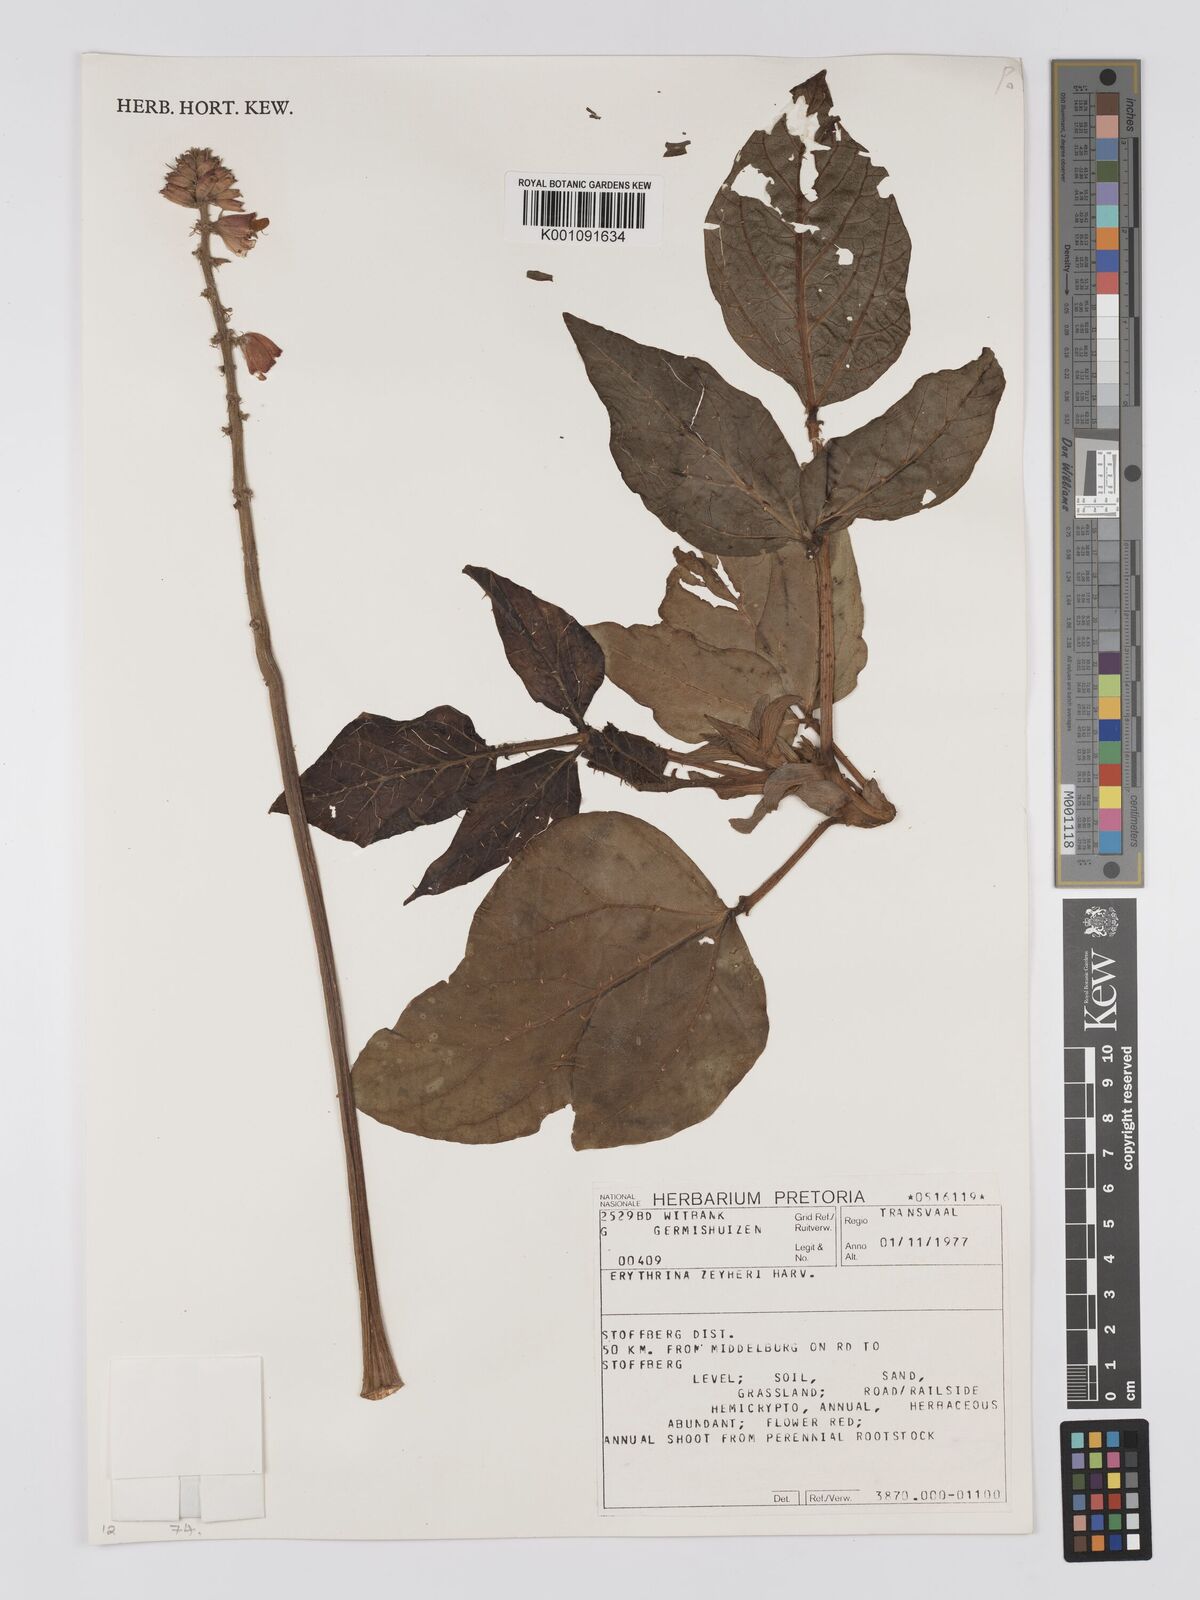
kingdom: Plantae
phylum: Tracheophyta
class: Magnoliopsida
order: Fabales
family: Fabaceae
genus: Erythrina
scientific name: Erythrina zeyheri
